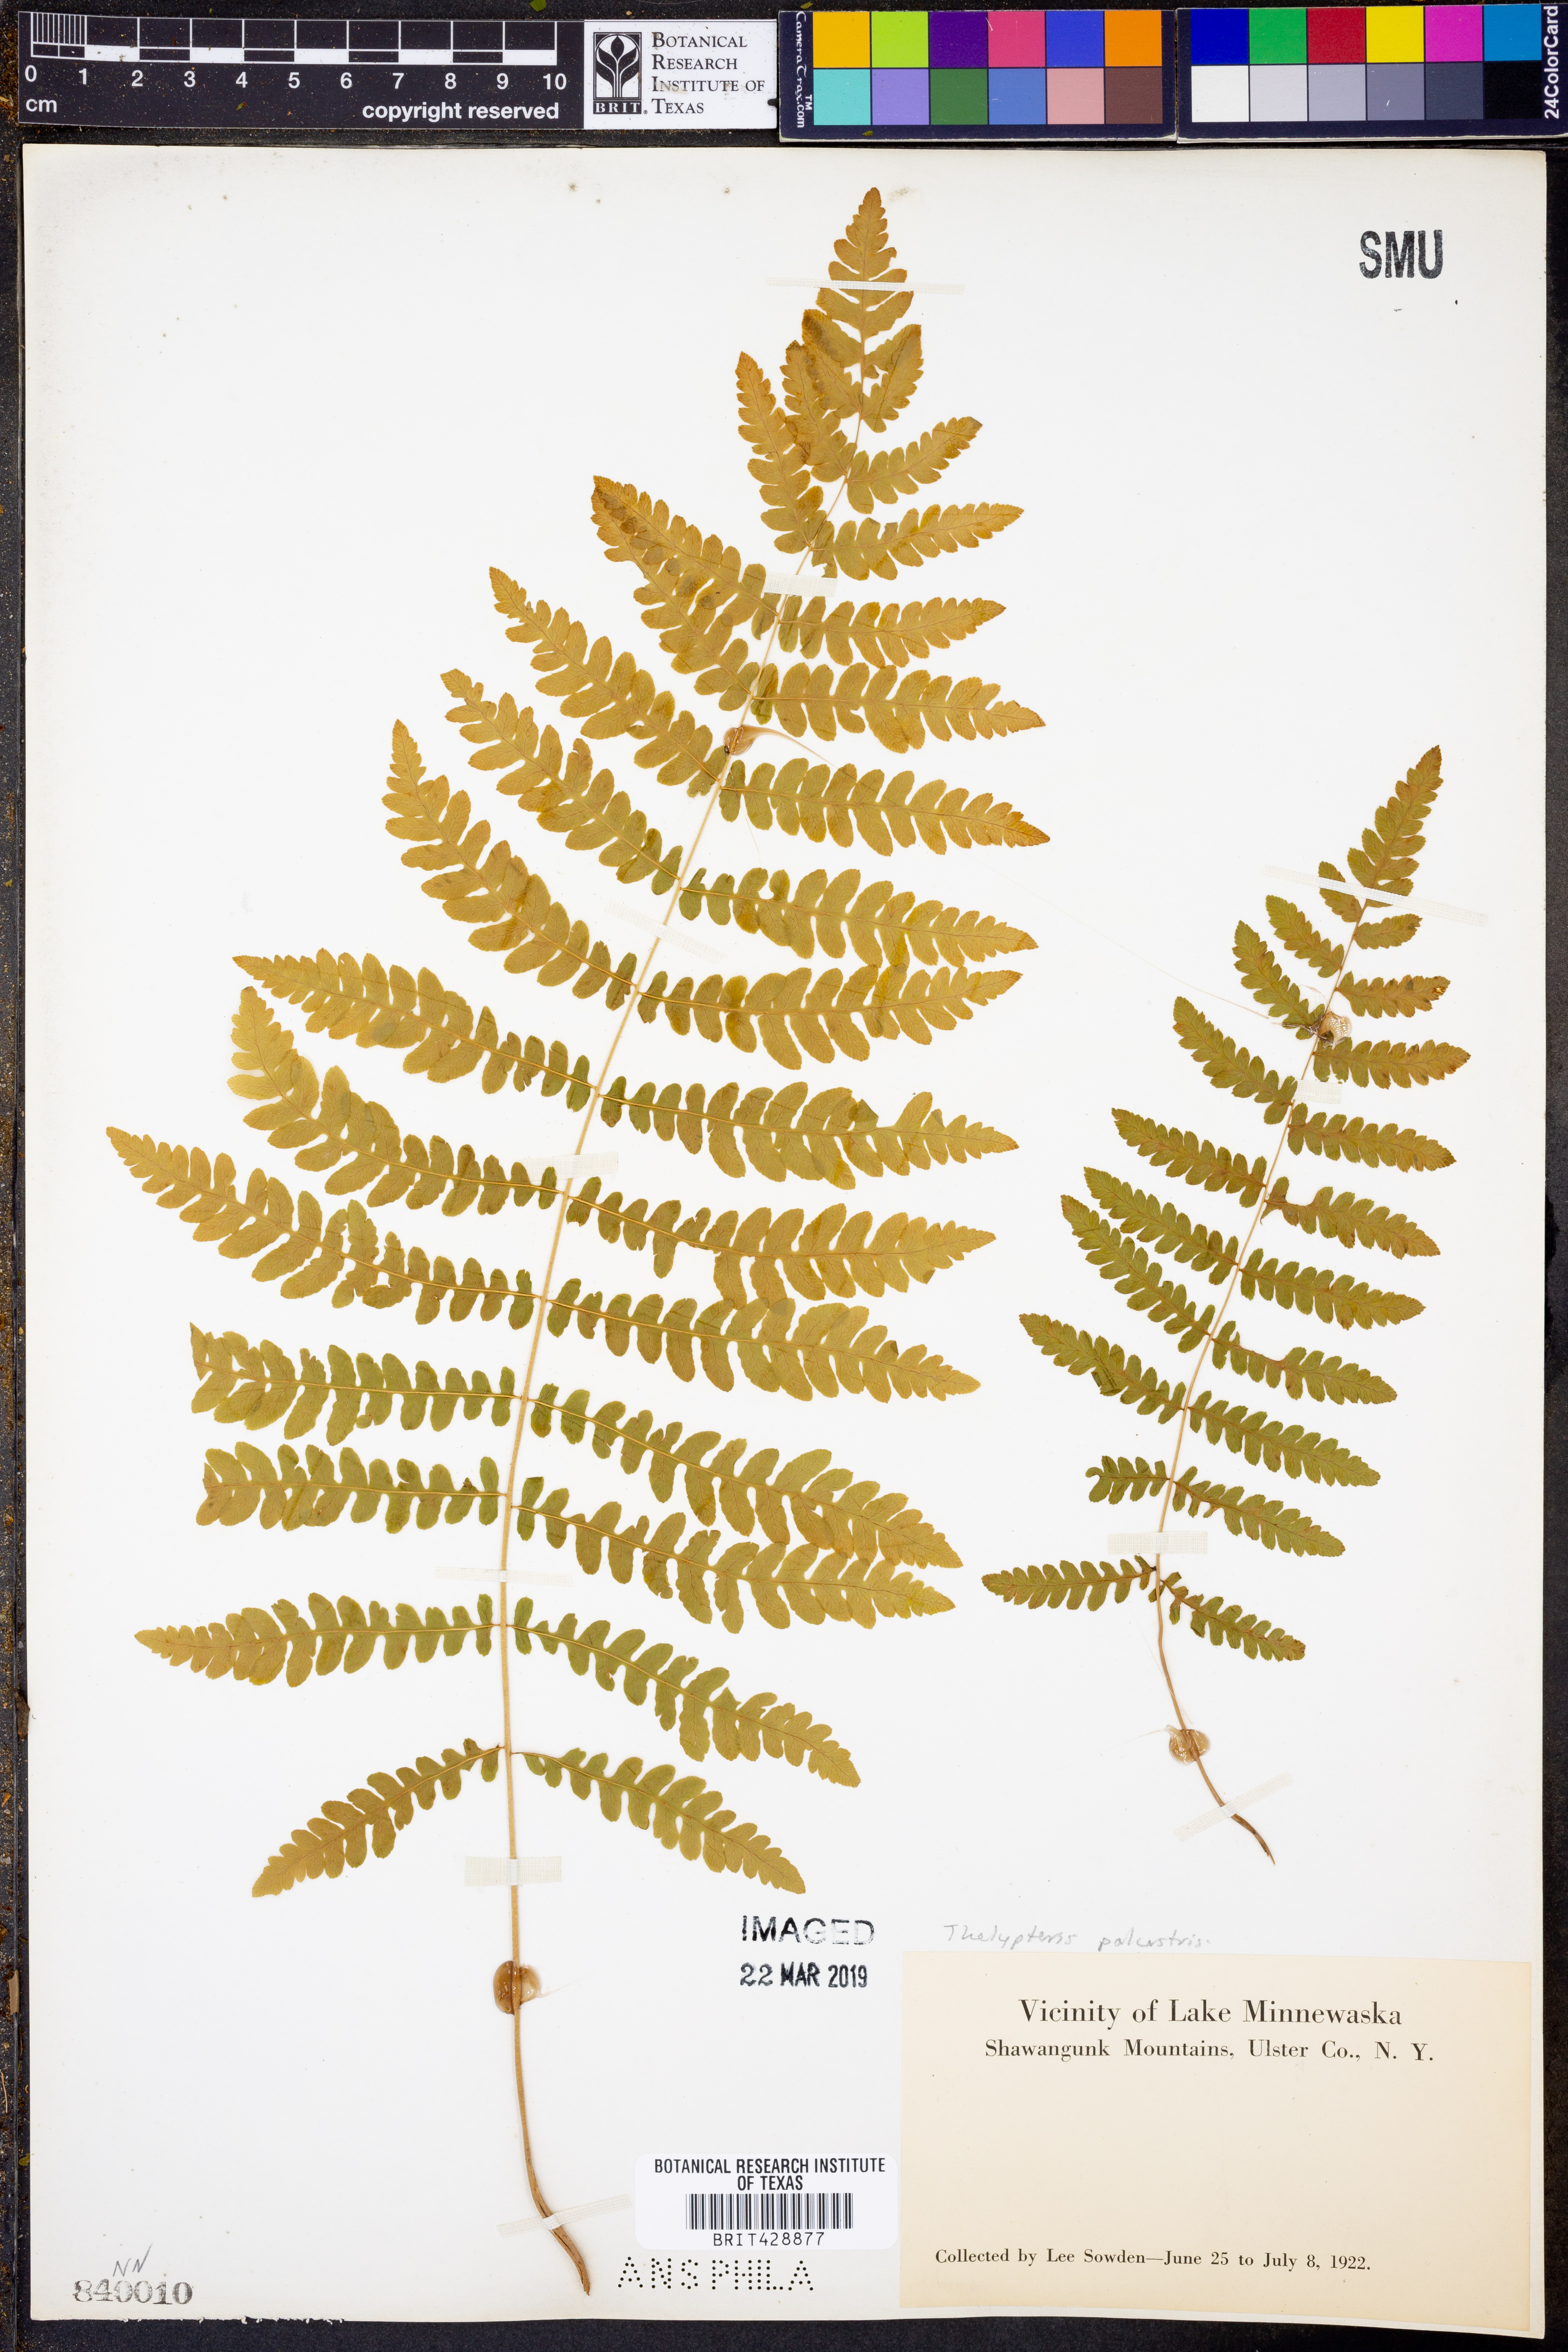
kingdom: Plantae
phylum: Tracheophyta
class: Polypodiopsida
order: Polypodiales
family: Thelypteridaceae
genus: Thelypteris
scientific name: Thelypteris palustris
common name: Marsh fern
